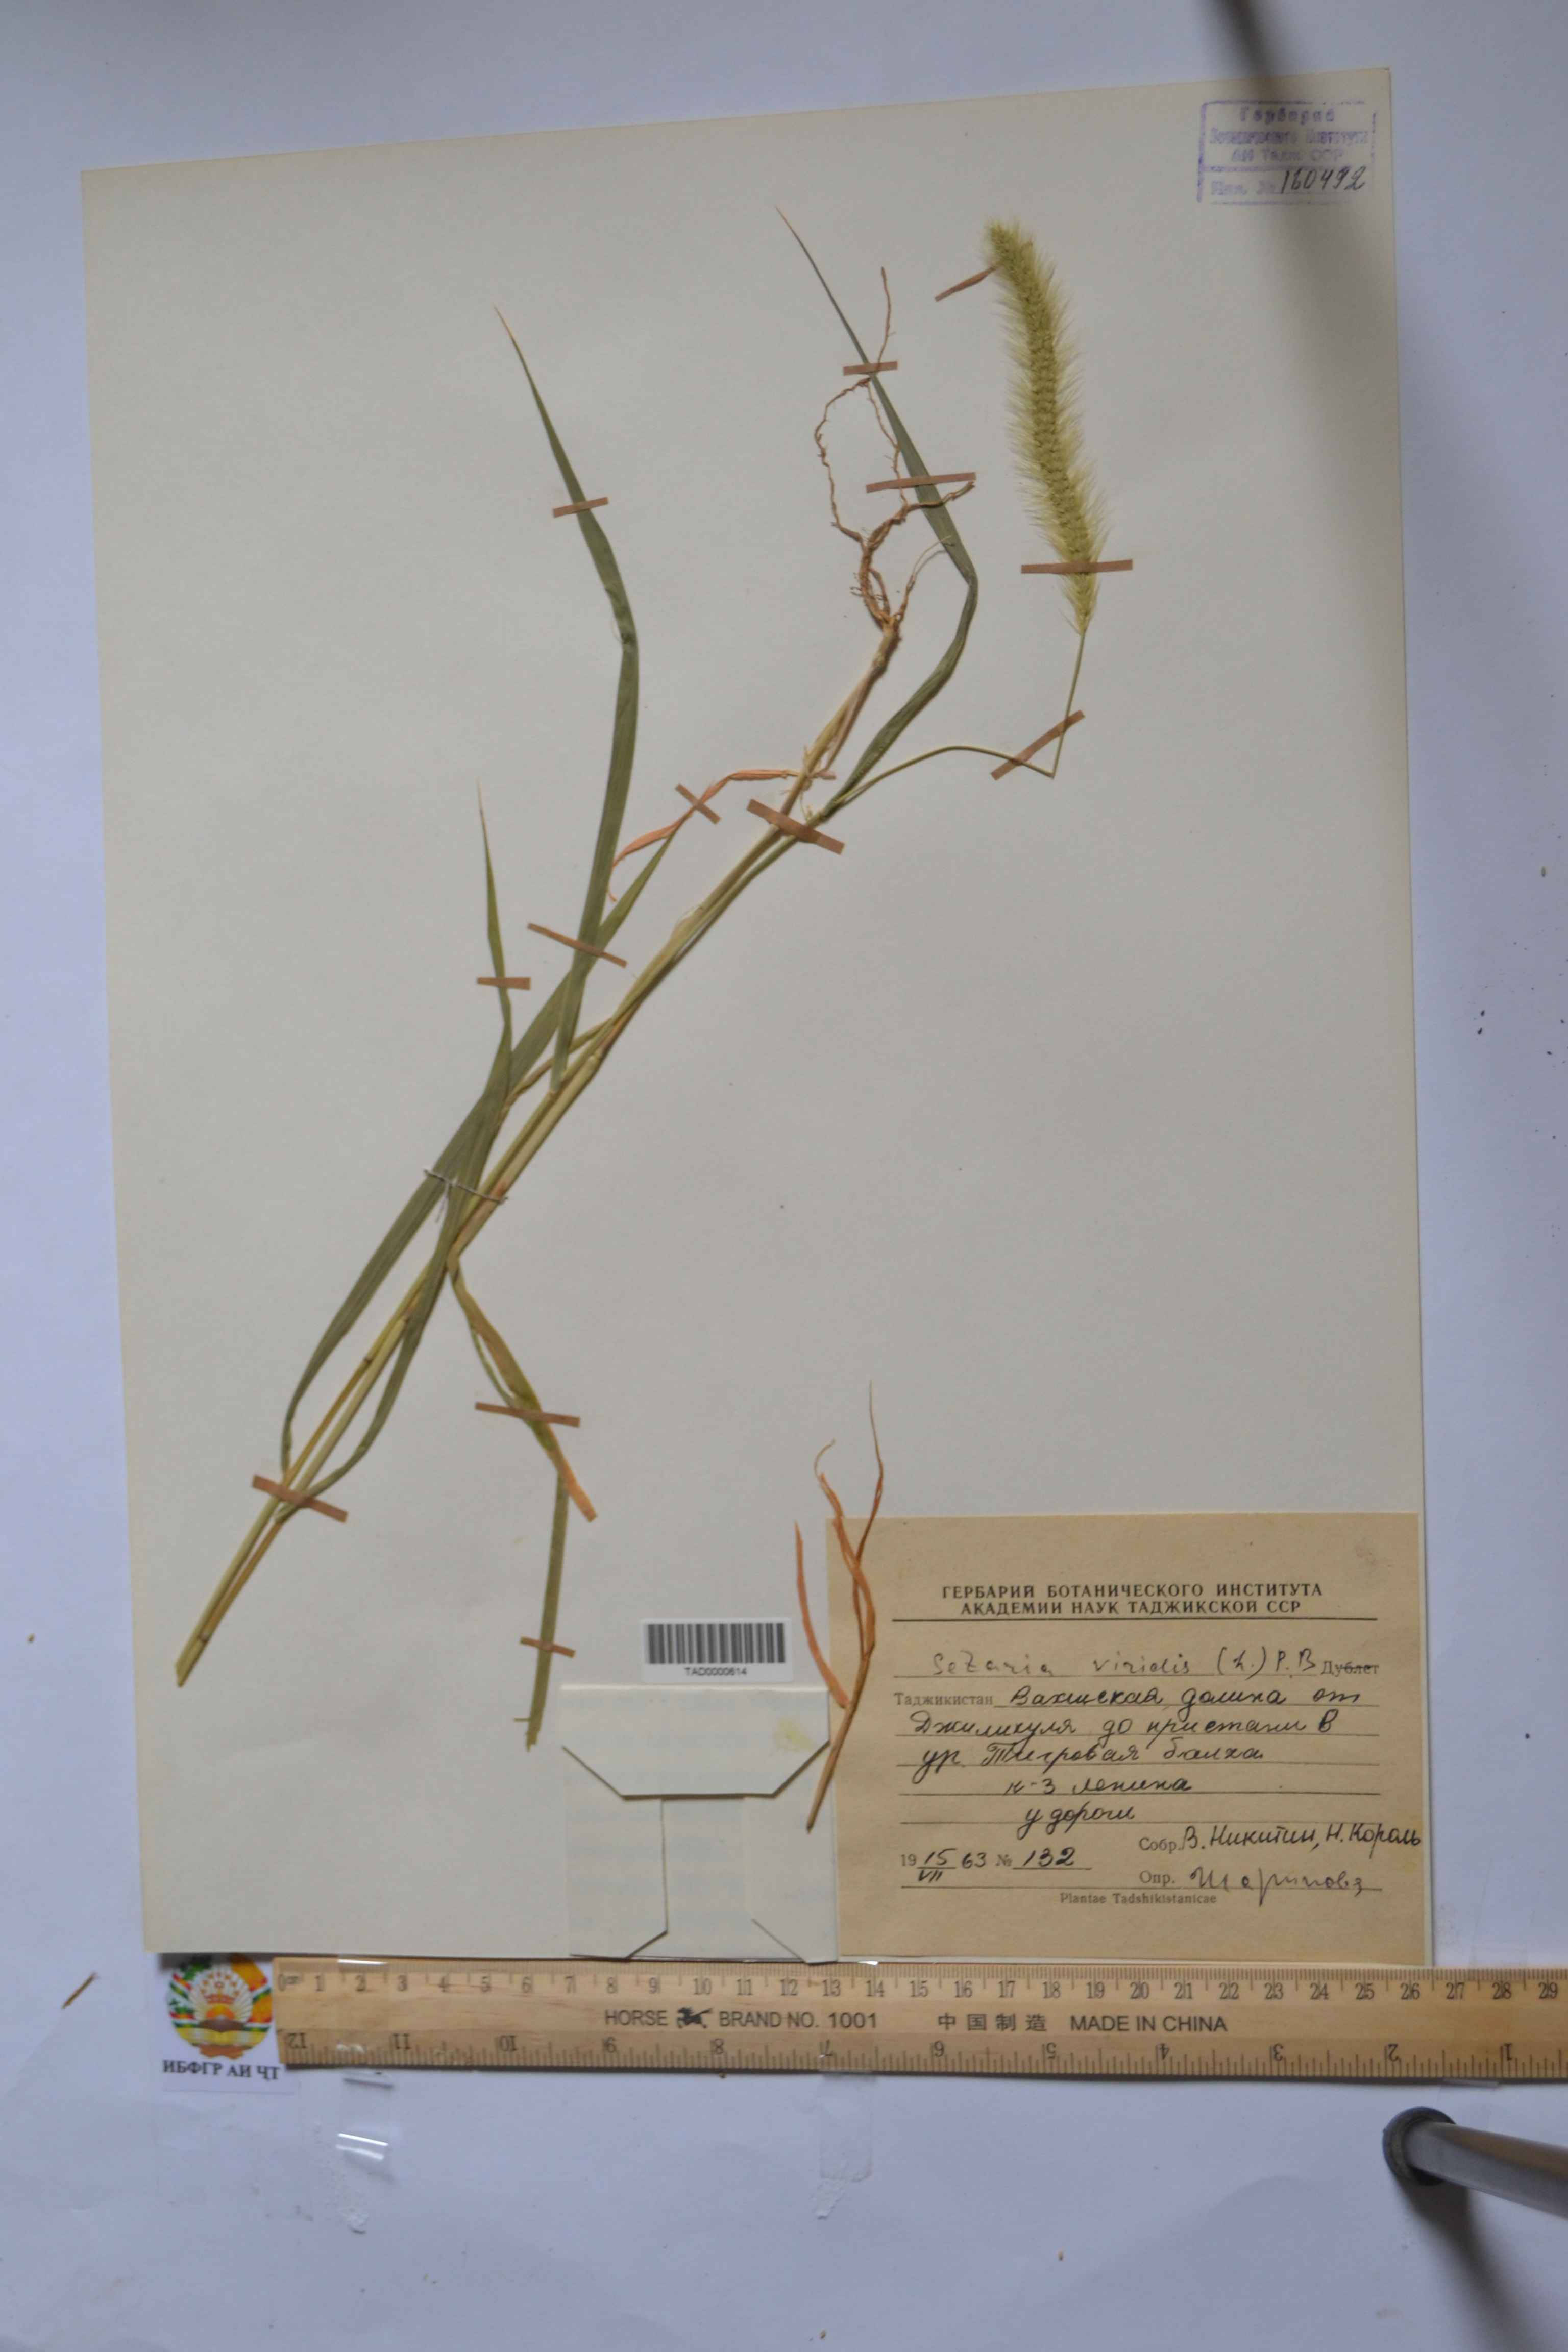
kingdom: Plantae
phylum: Tracheophyta
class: Liliopsida
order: Poales
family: Poaceae
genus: Setaria
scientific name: Setaria viridis
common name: Green bristlegrass
